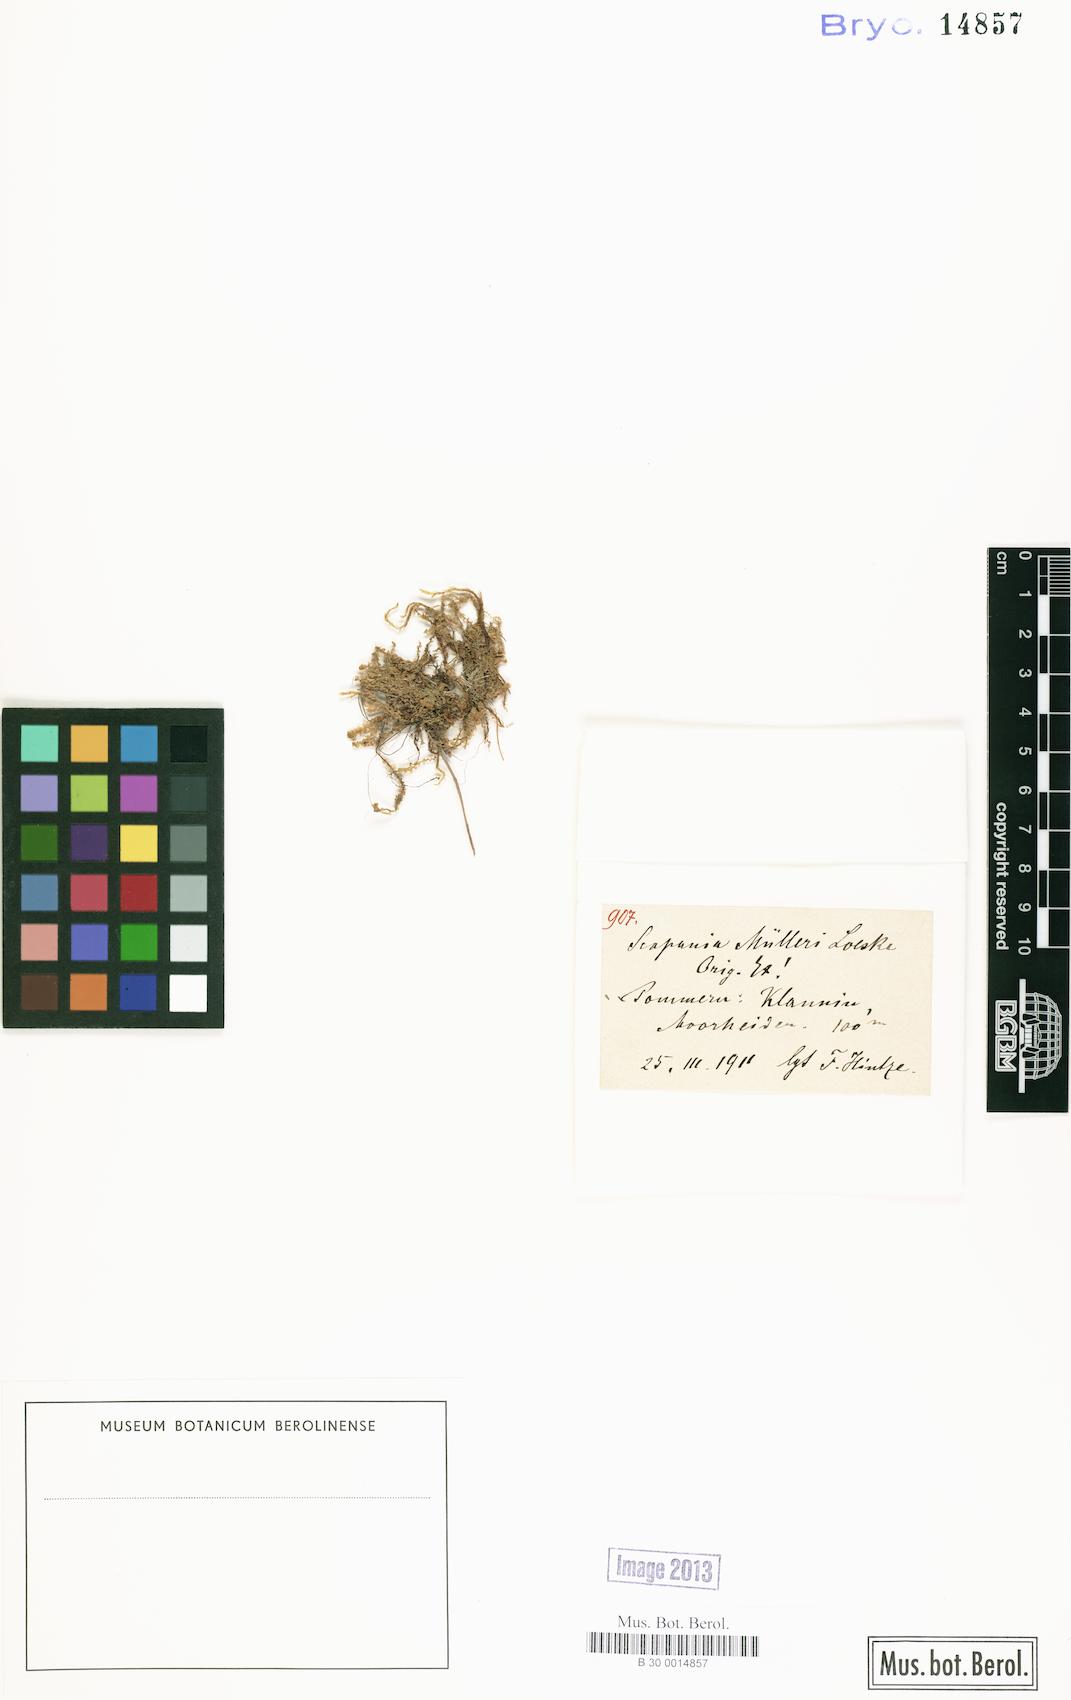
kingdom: Plantae
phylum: Marchantiophyta
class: Jungermanniopsida
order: Jungermanniales
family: Scapaniaceae
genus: Scapania
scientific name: Scapania
